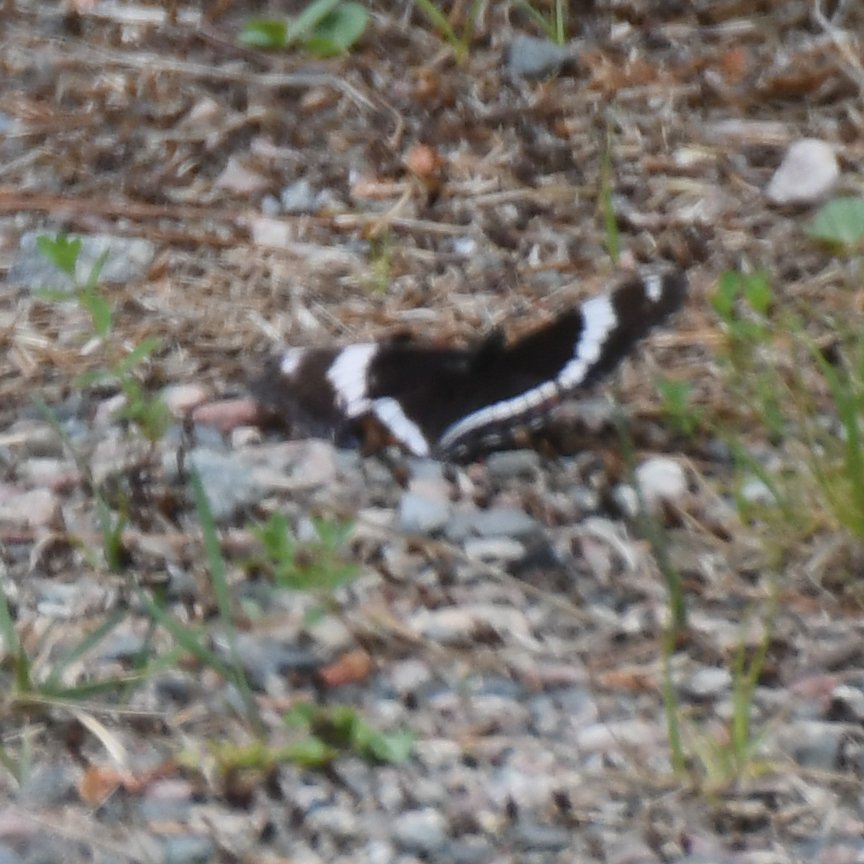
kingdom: Animalia
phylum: Arthropoda
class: Insecta
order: Lepidoptera
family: Nymphalidae
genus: Limenitis
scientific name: Limenitis arthemis
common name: Red-spotted Admiral
